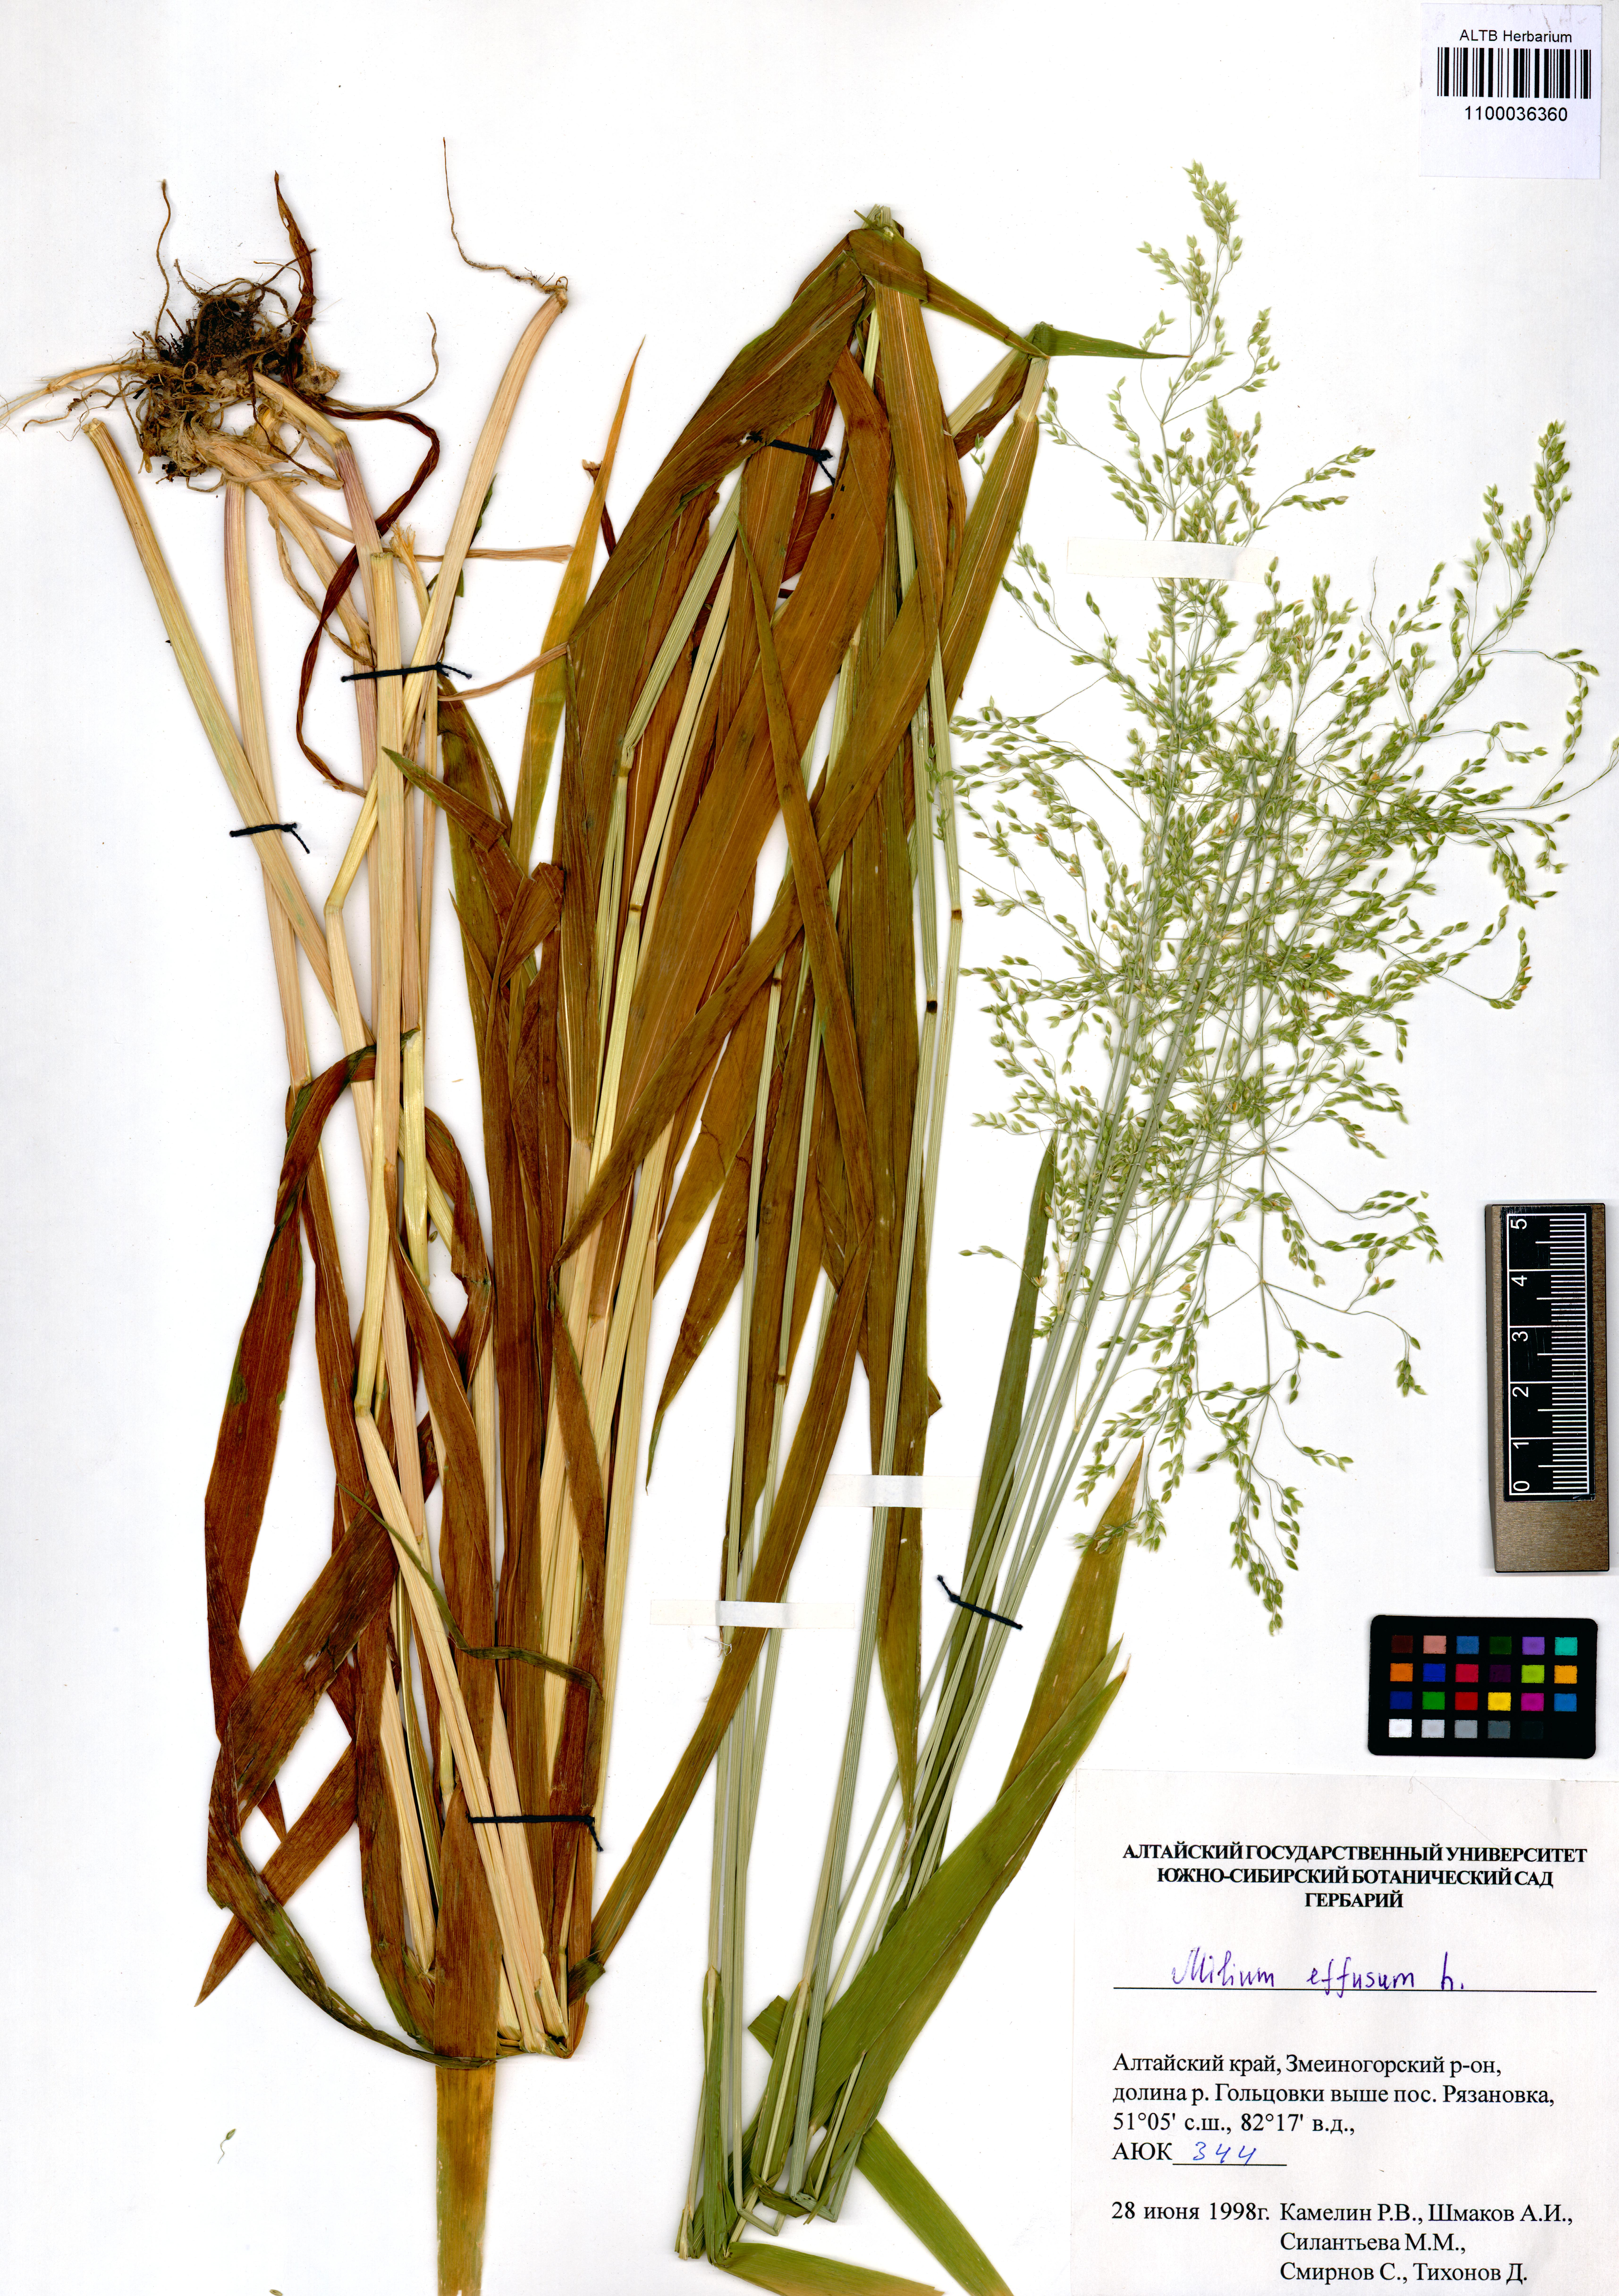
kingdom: Plantae
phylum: Tracheophyta
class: Liliopsida
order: Poales
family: Poaceae
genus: Milium
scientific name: Milium effusum
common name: Wood millet
